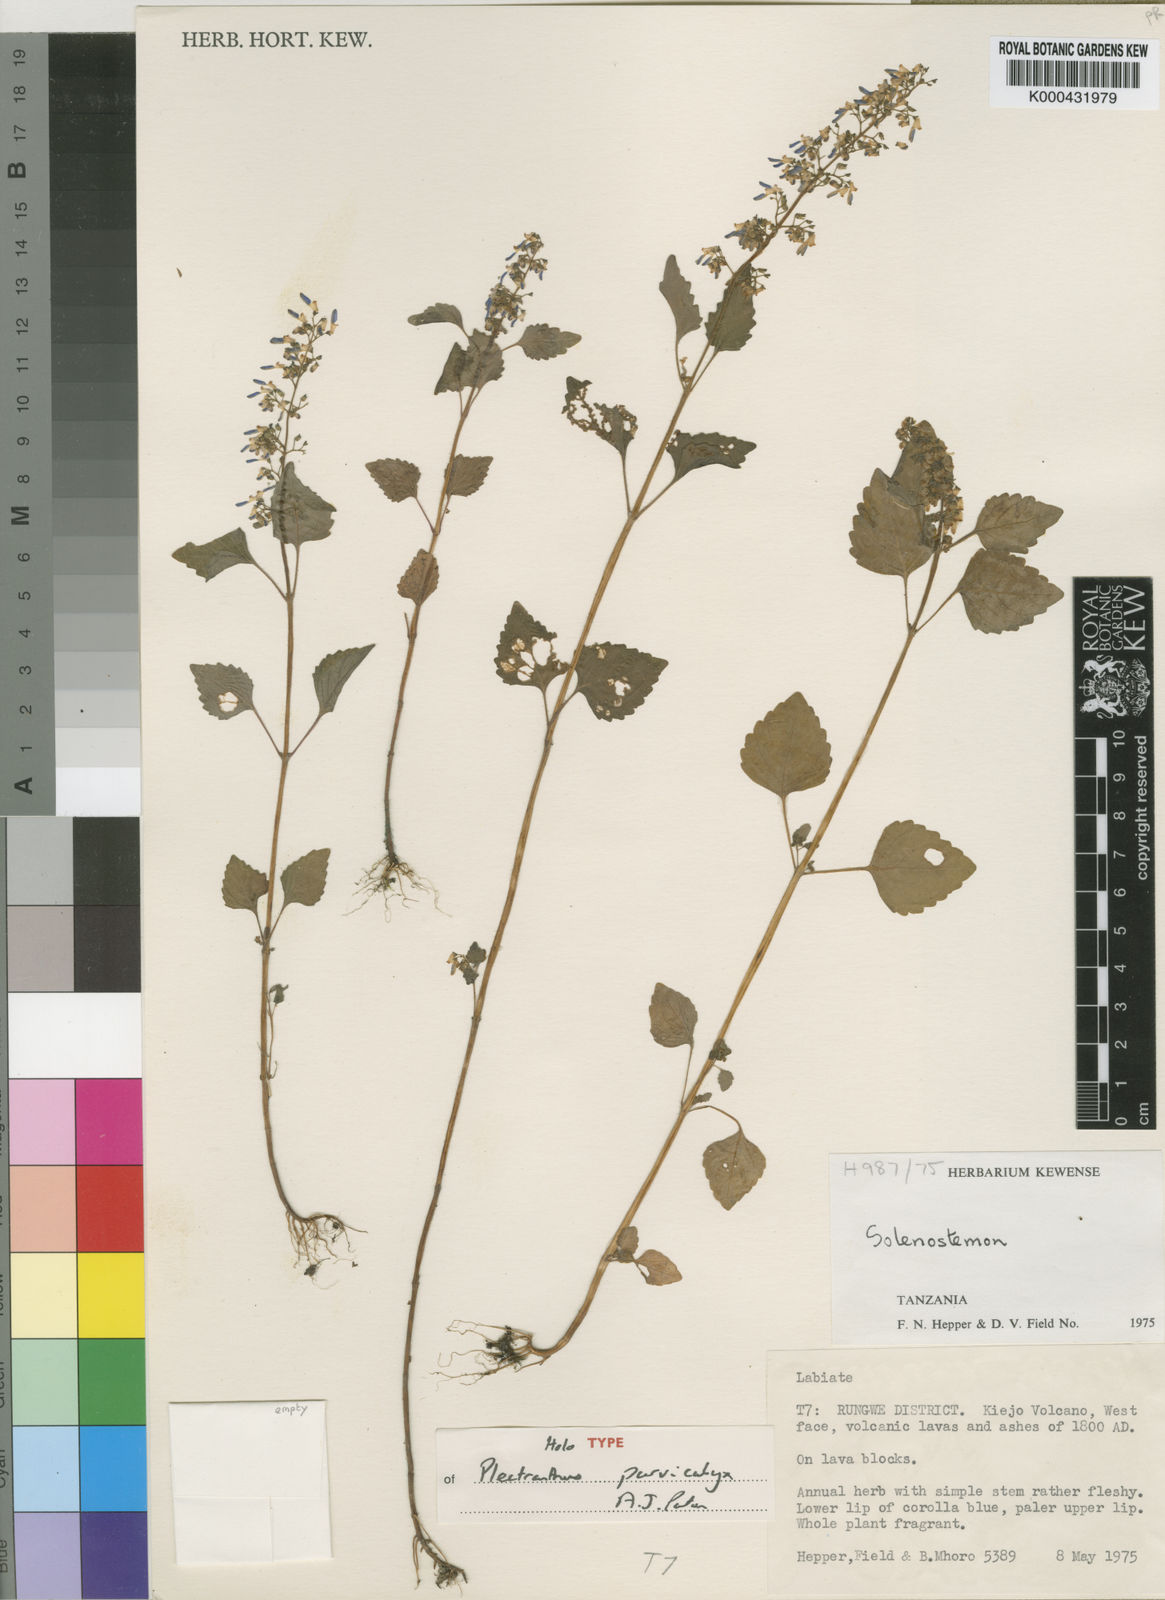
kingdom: Plantae
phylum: Tracheophyta
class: Magnoliopsida
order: Lamiales
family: Lamiaceae
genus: Coleus
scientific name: Coleus parvicalyx
